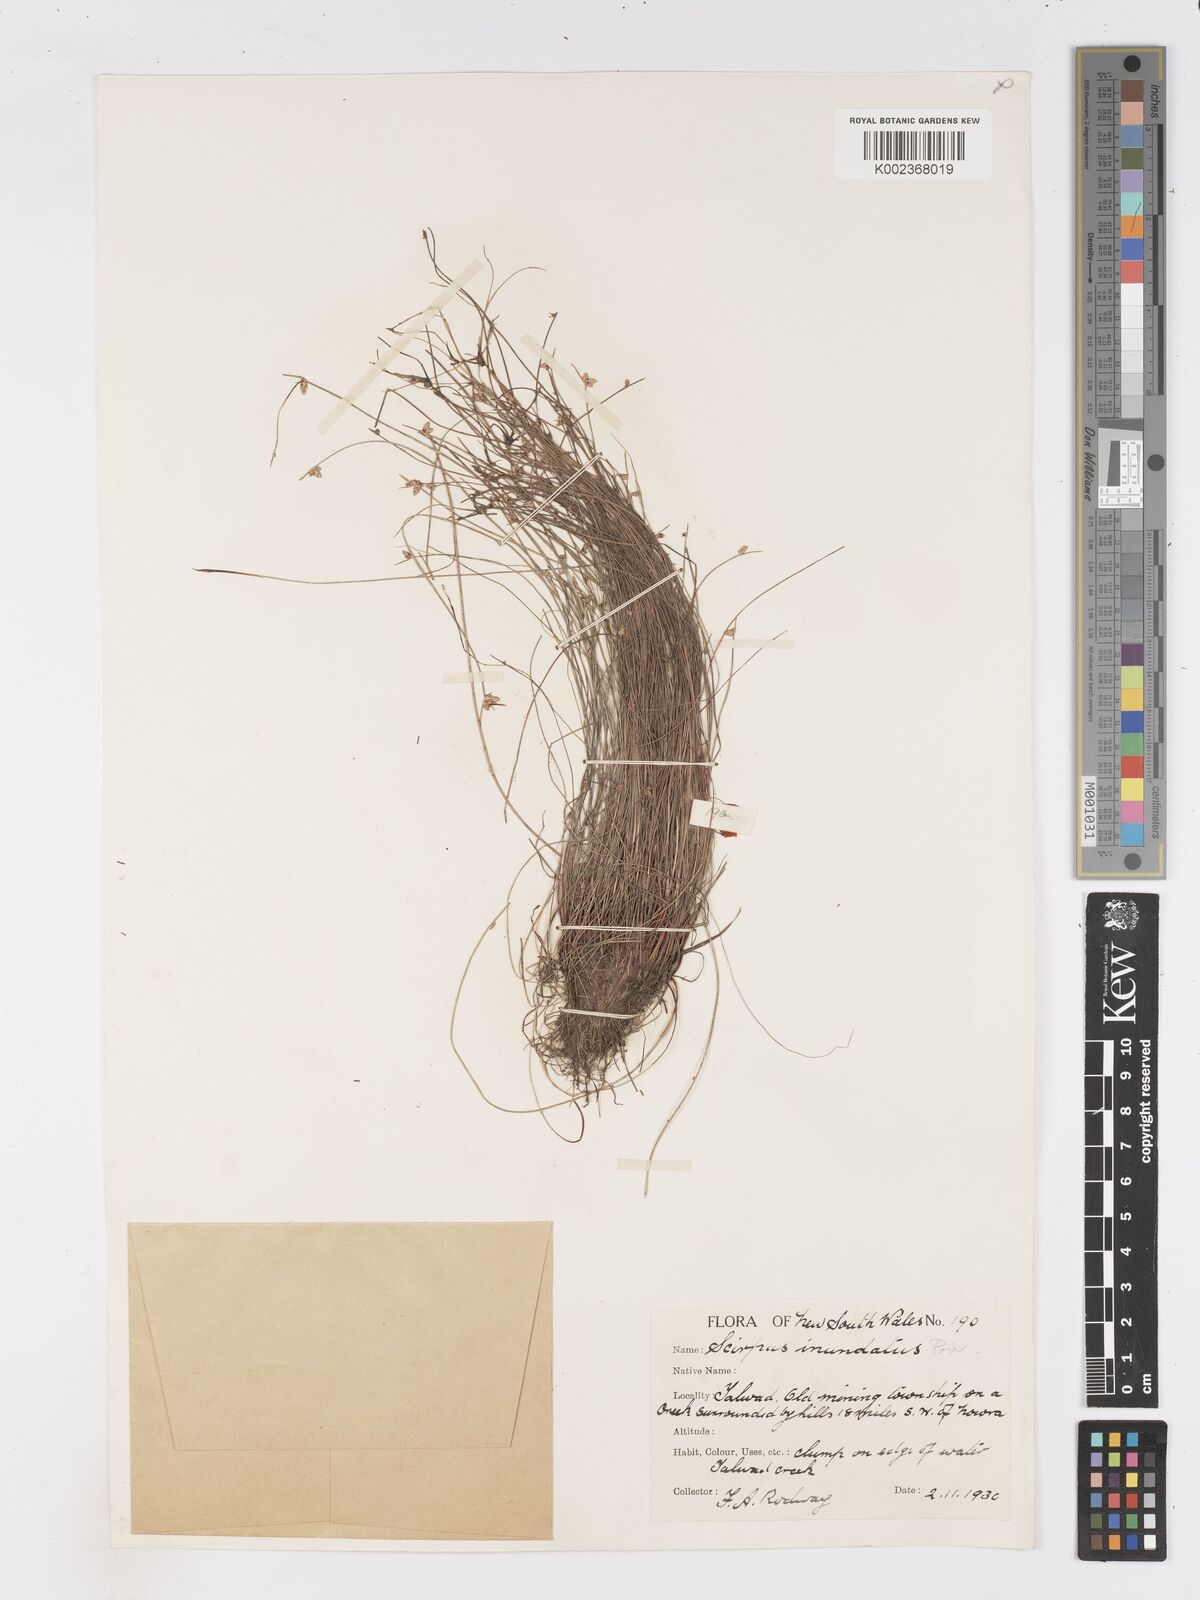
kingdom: Plantae
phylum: Tracheophyta
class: Liliopsida
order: Poales
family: Cyperaceae
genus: Isolepis
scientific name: Isolepis inundata
